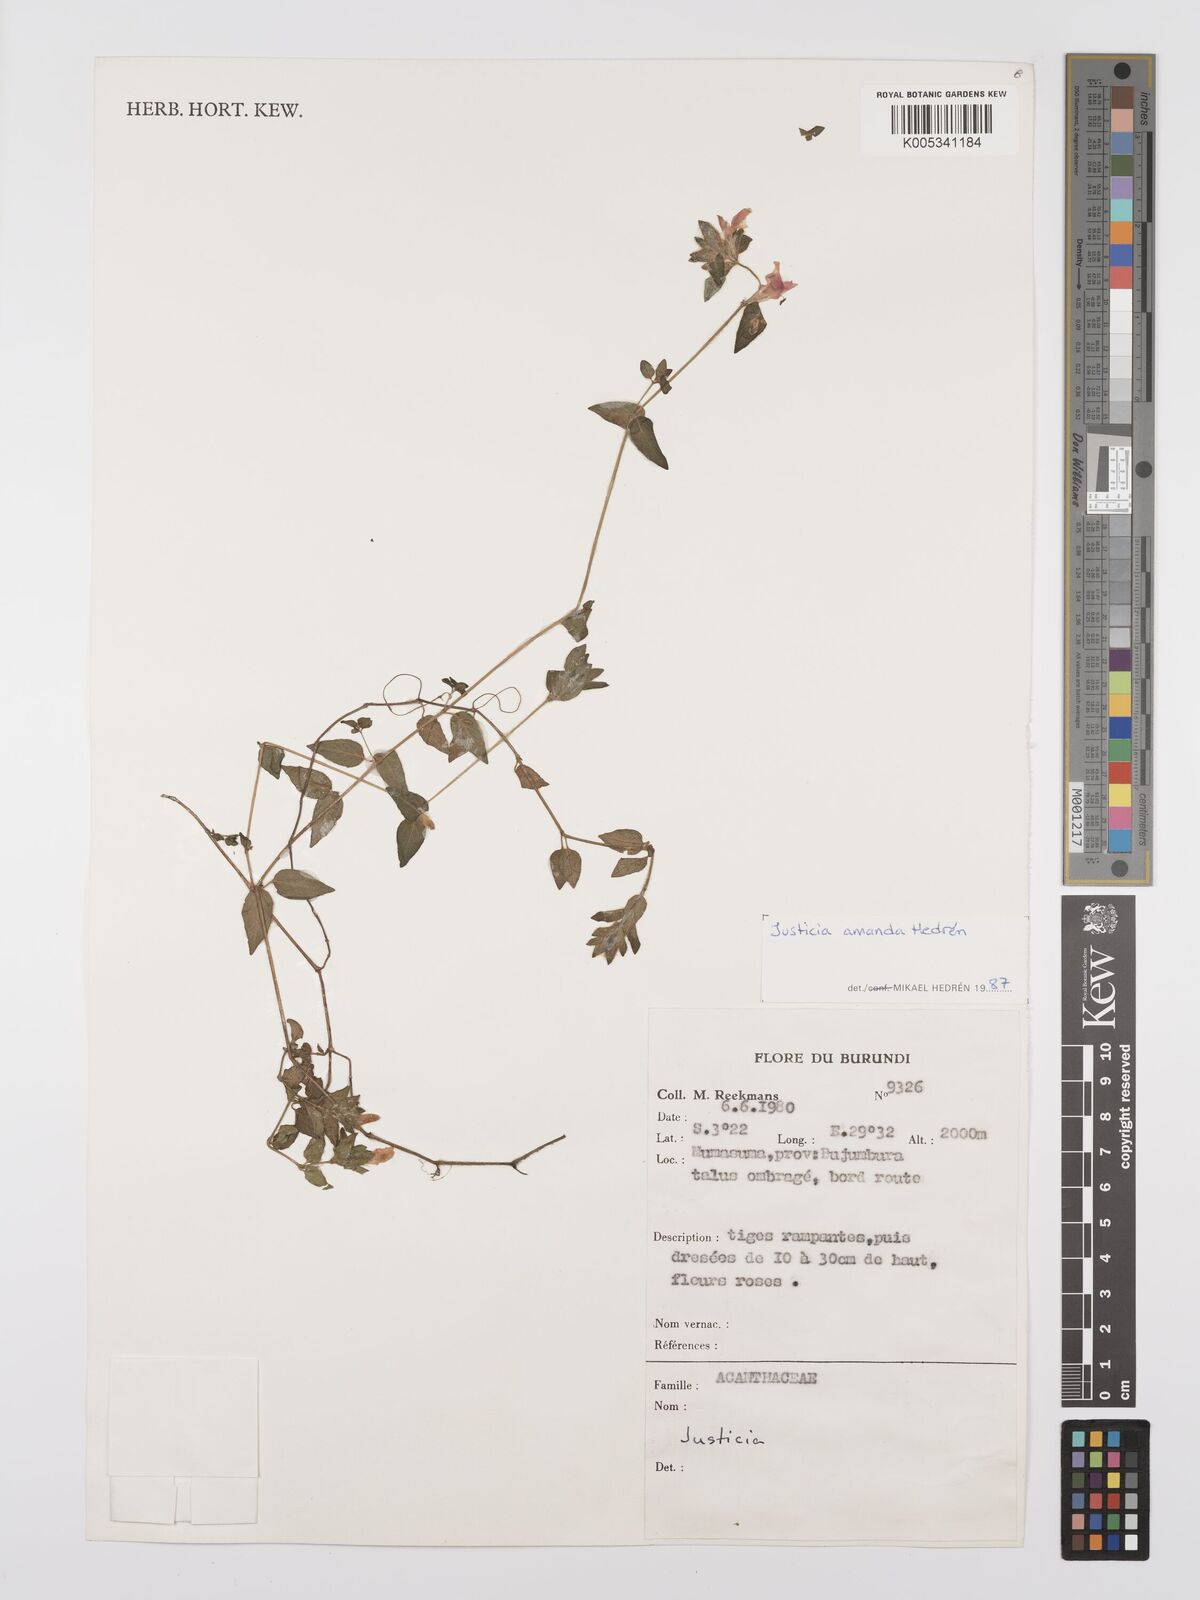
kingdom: Plantae
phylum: Tracheophyta
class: Magnoliopsida
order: Lamiales
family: Acanthaceae
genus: Justicia
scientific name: Justicia amanda
